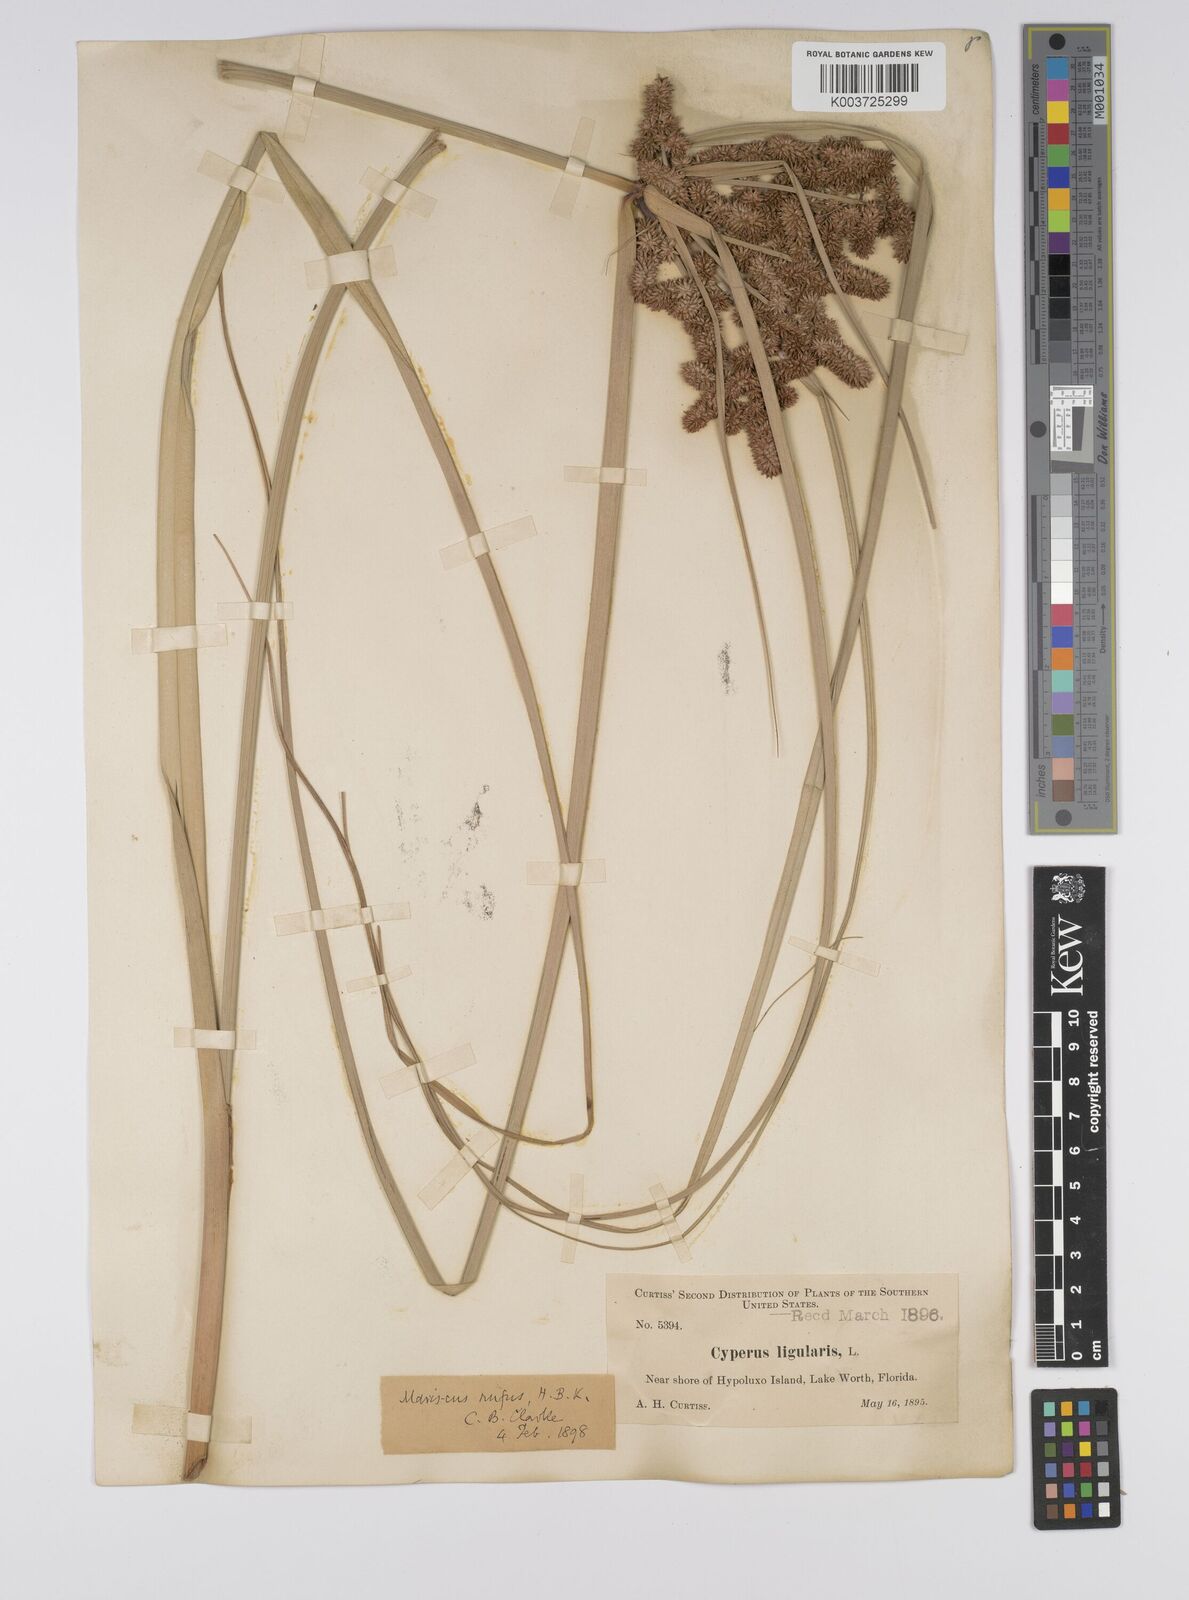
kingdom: Plantae
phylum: Tracheophyta
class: Liliopsida
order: Poales
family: Cyperaceae
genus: Cyperus
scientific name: Cyperus ligularis
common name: Swamp flat sedge
